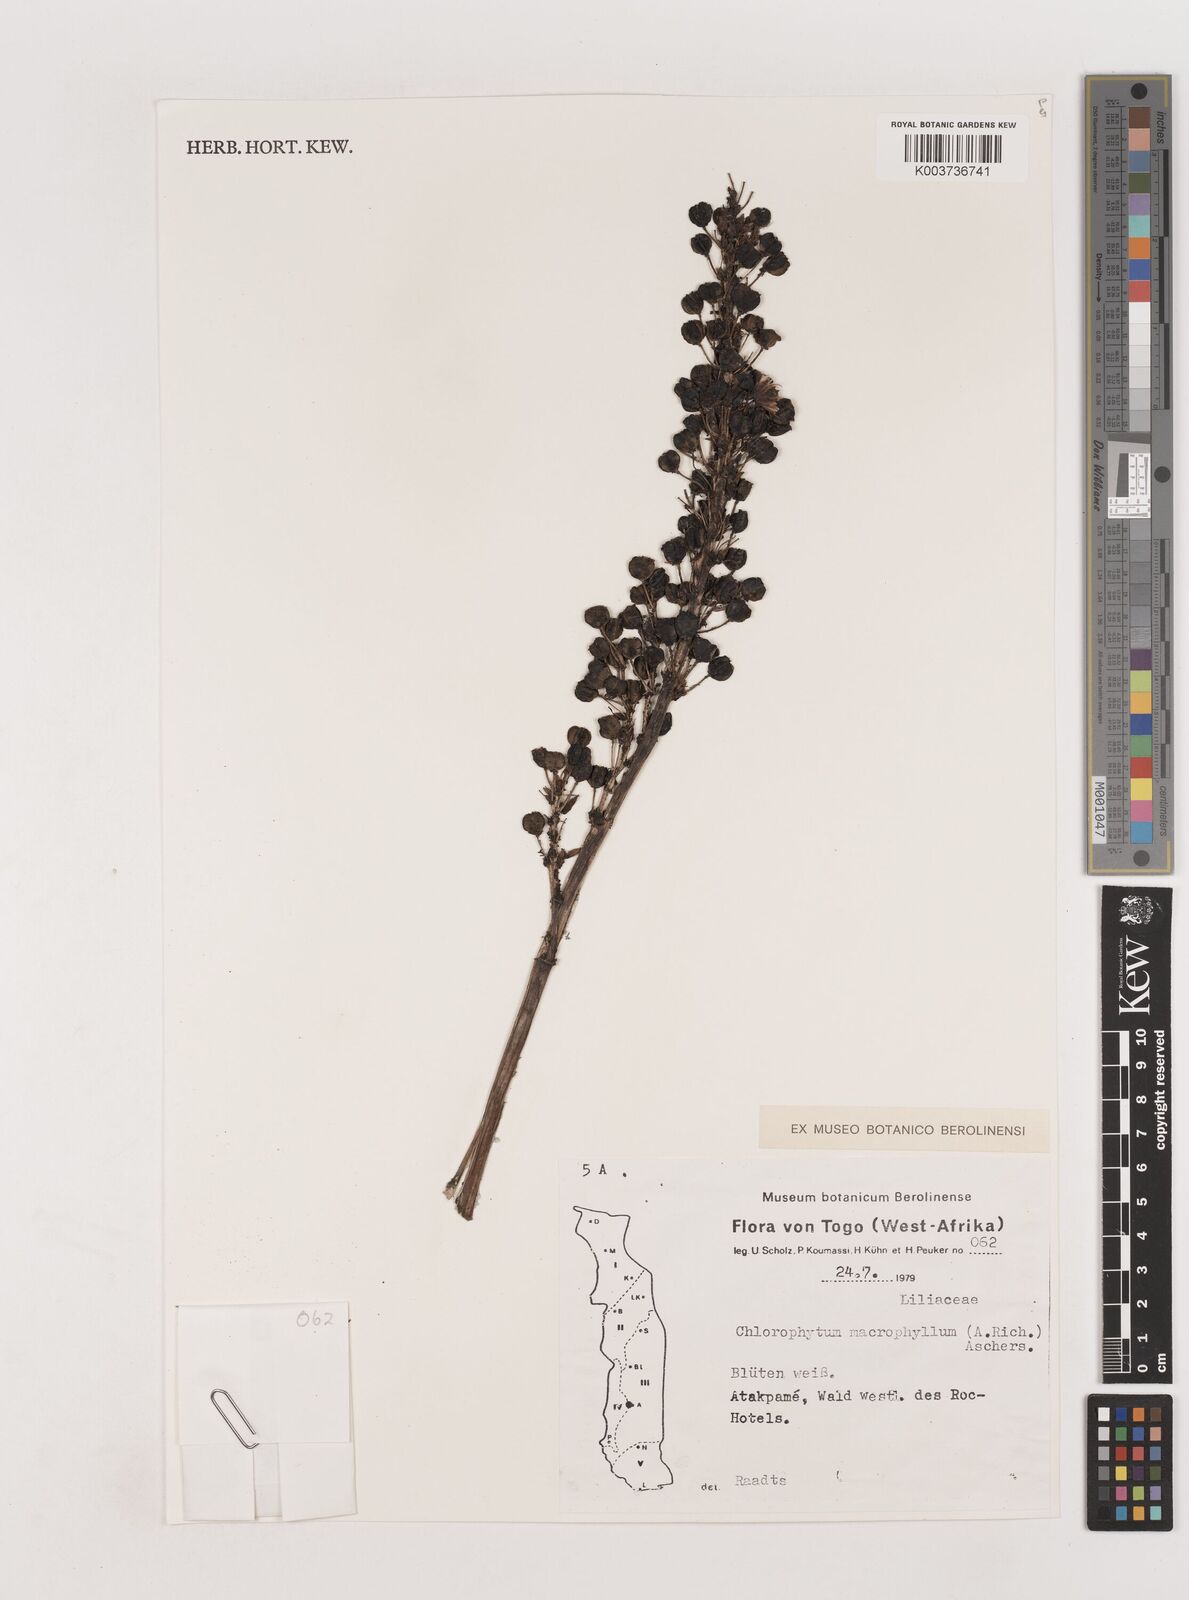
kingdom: Plantae
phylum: Tracheophyta
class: Liliopsida
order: Asparagales
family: Asparagaceae
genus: Chlorophytum
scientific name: Chlorophytum macrophyllum
